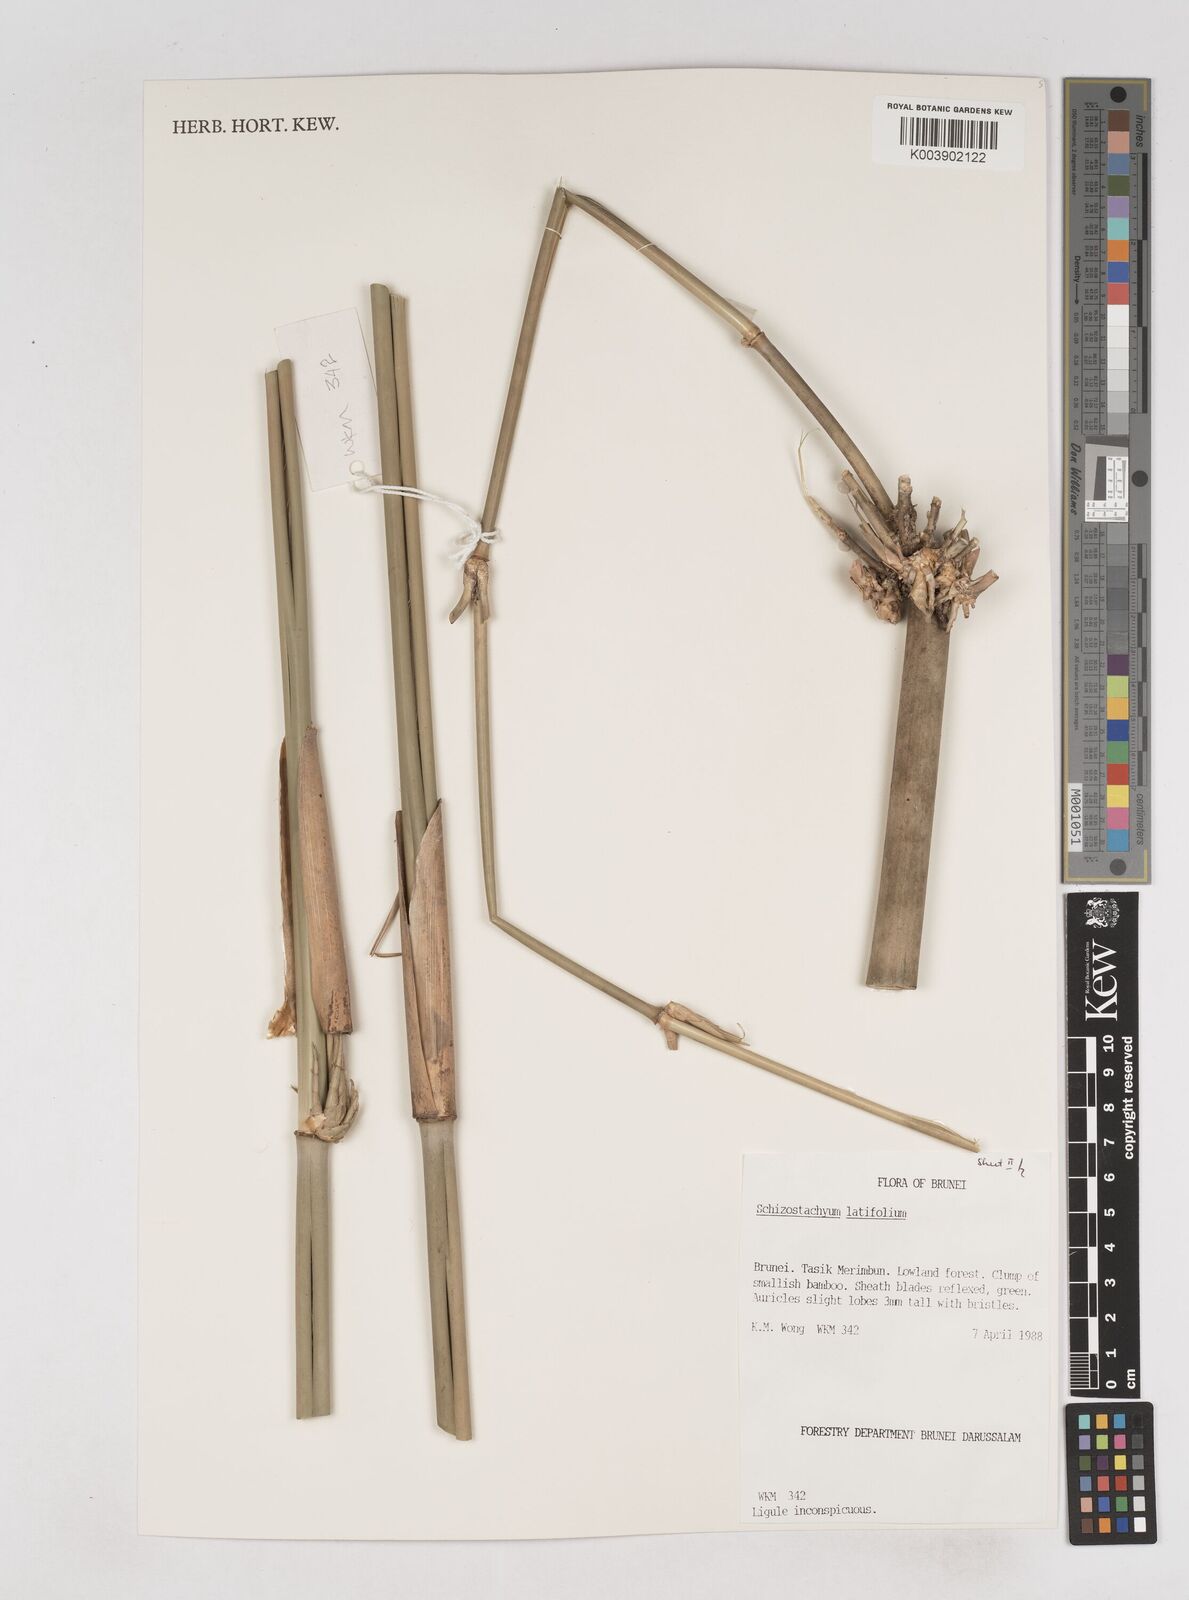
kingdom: Plantae
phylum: Tracheophyta
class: Liliopsida
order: Poales
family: Poaceae
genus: Schizostachyum
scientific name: Schizostachyum
